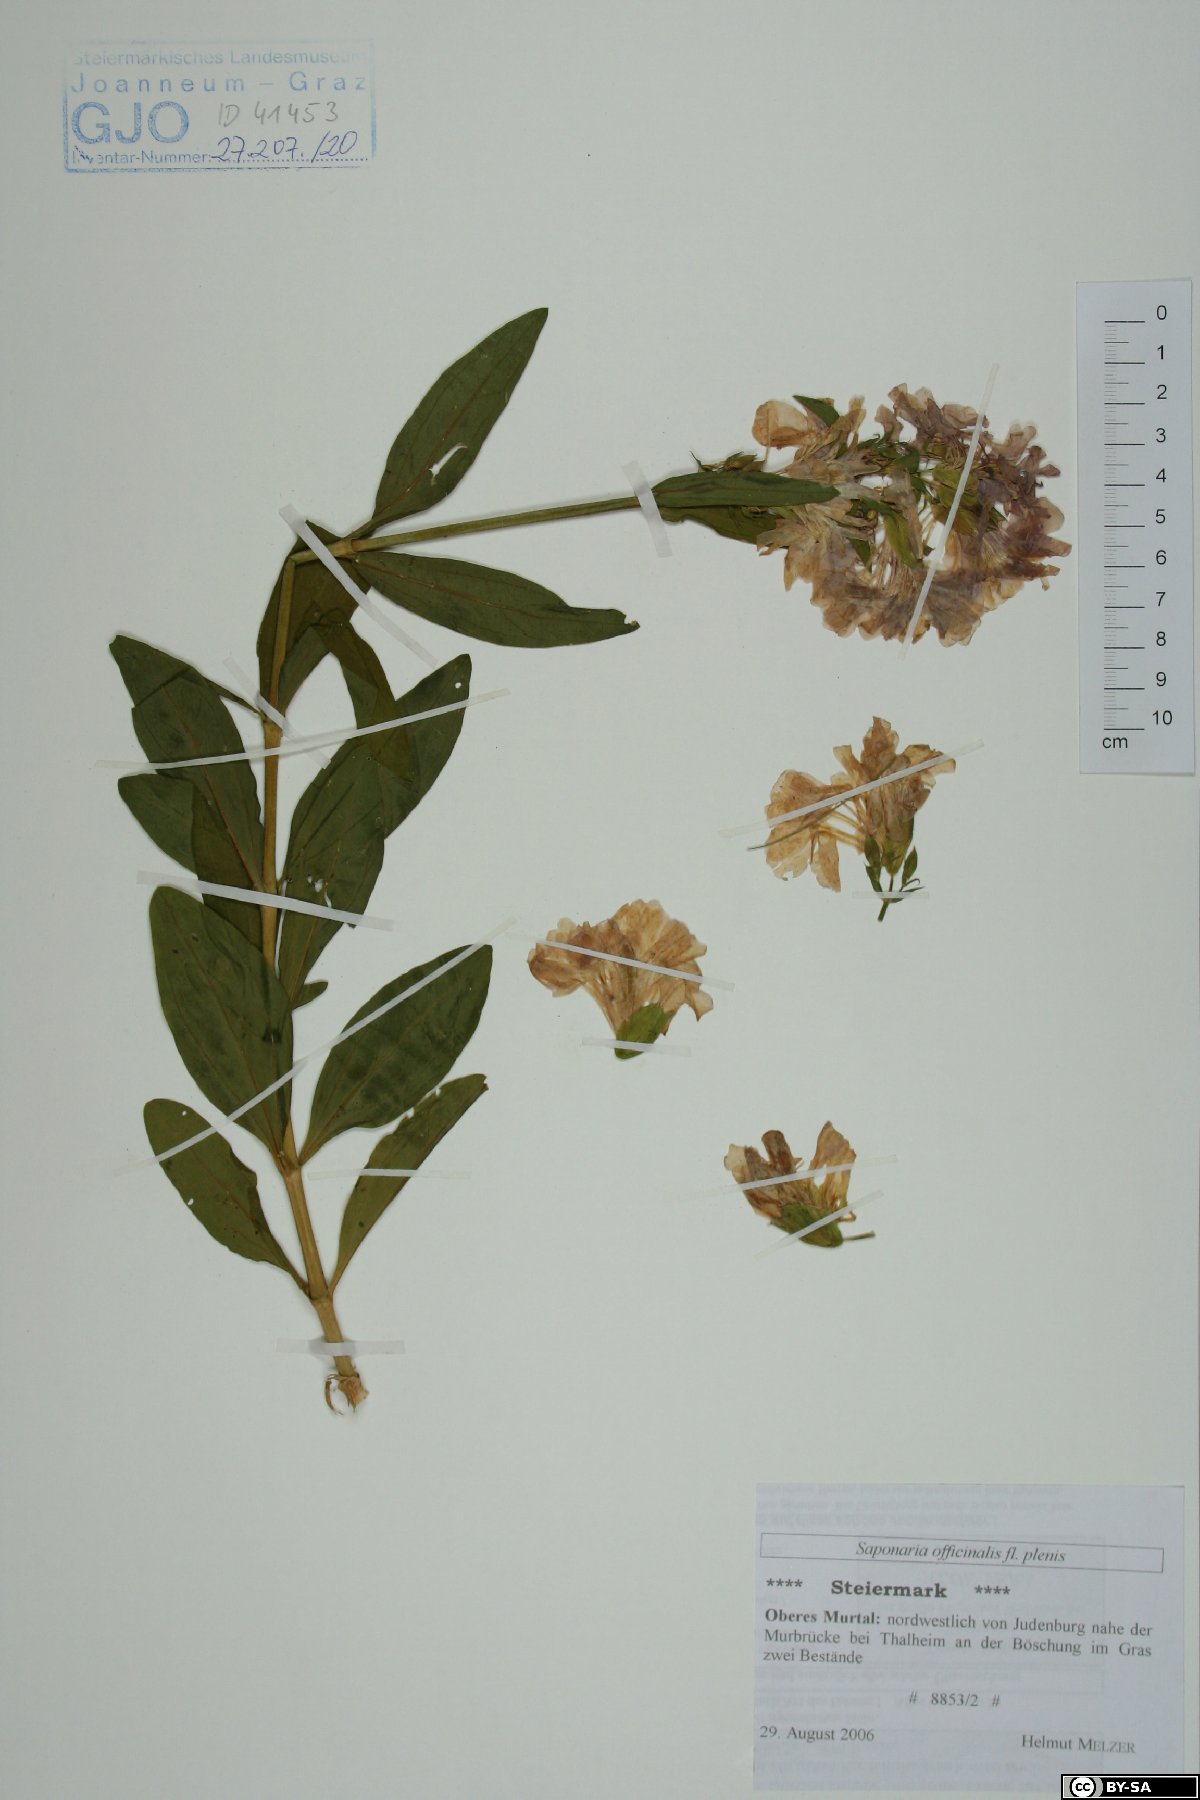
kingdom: Plantae
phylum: Tracheophyta
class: Magnoliopsida
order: Caryophyllales
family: Caryophyllaceae
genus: Saponaria
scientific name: Saponaria officinalis
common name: Soapwort
